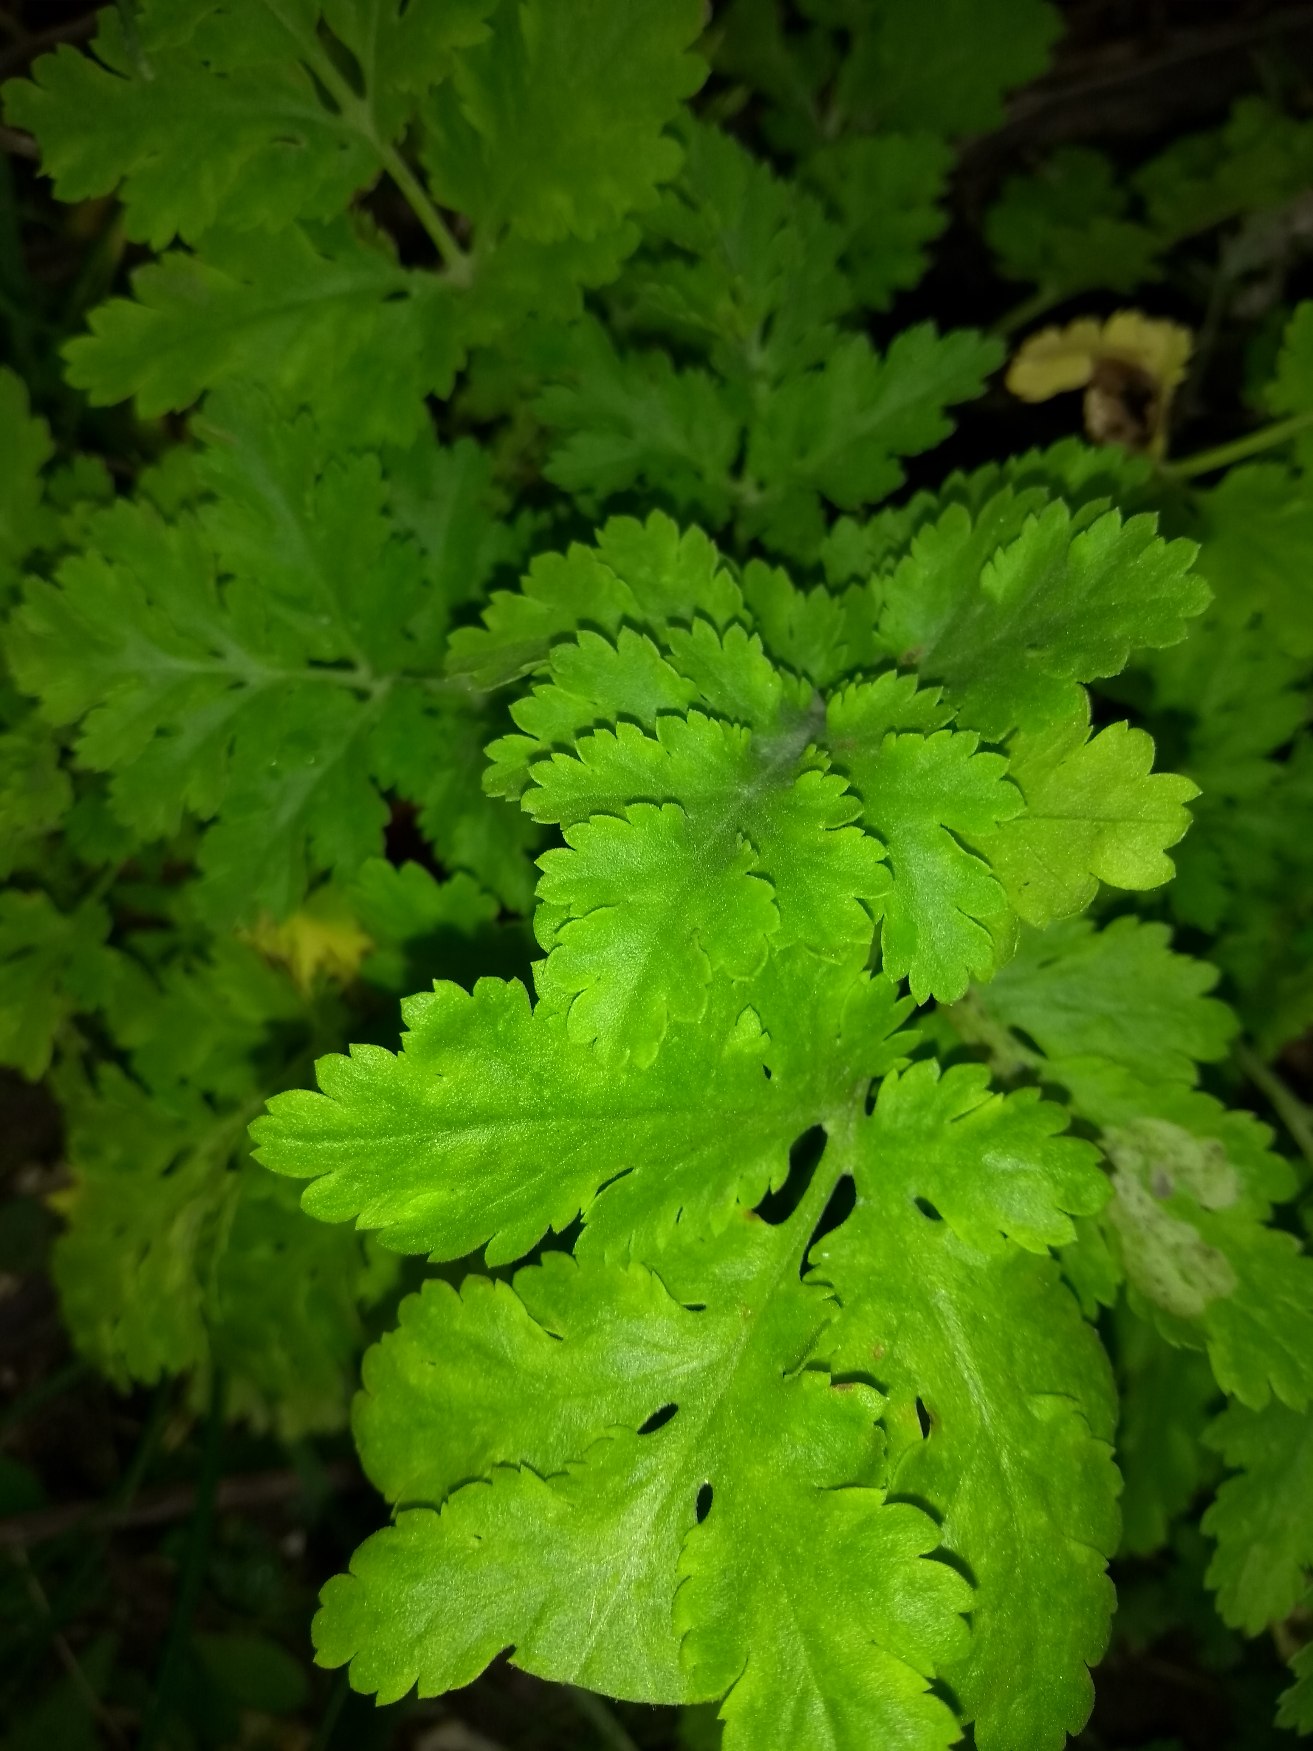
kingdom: Plantae
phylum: Tracheophyta
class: Magnoliopsida
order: Asterales
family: Asteraceae
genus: Tanacetum
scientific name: Tanacetum parthenium
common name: Matrem
